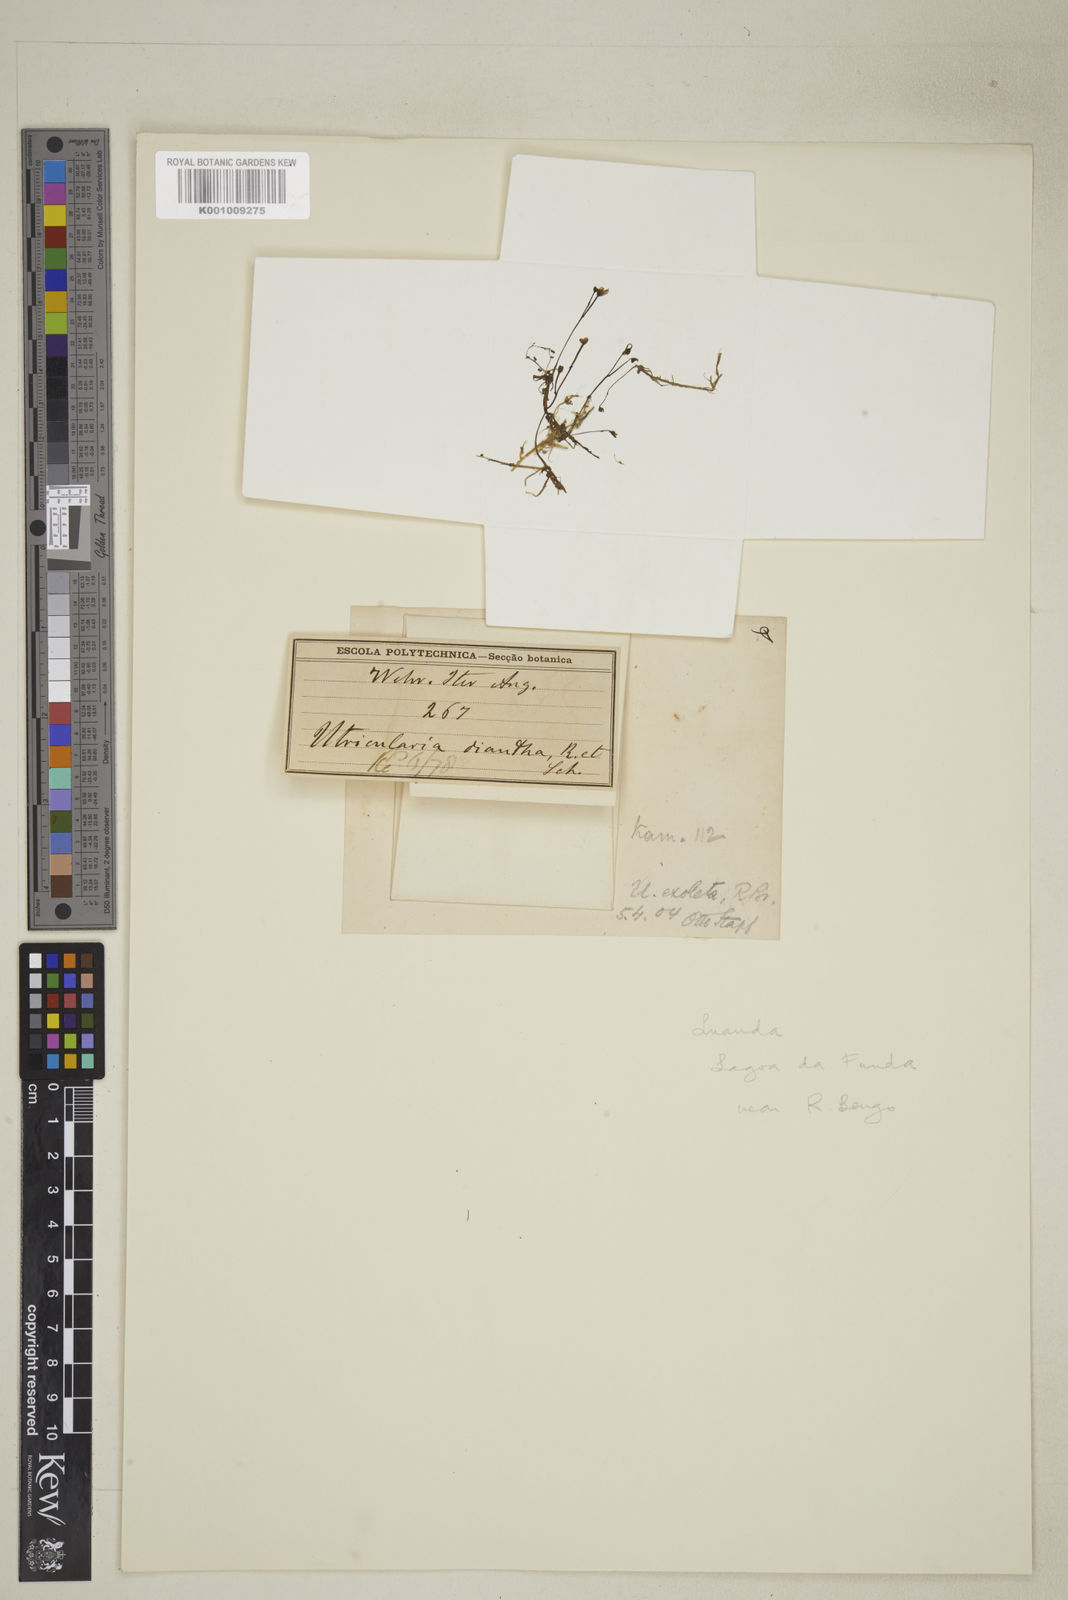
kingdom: Plantae
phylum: Tracheophyta
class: Magnoliopsida
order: Lamiales
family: Lentibulariaceae
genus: Utricularia
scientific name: Utricularia gibba
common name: Humped bladderwort
